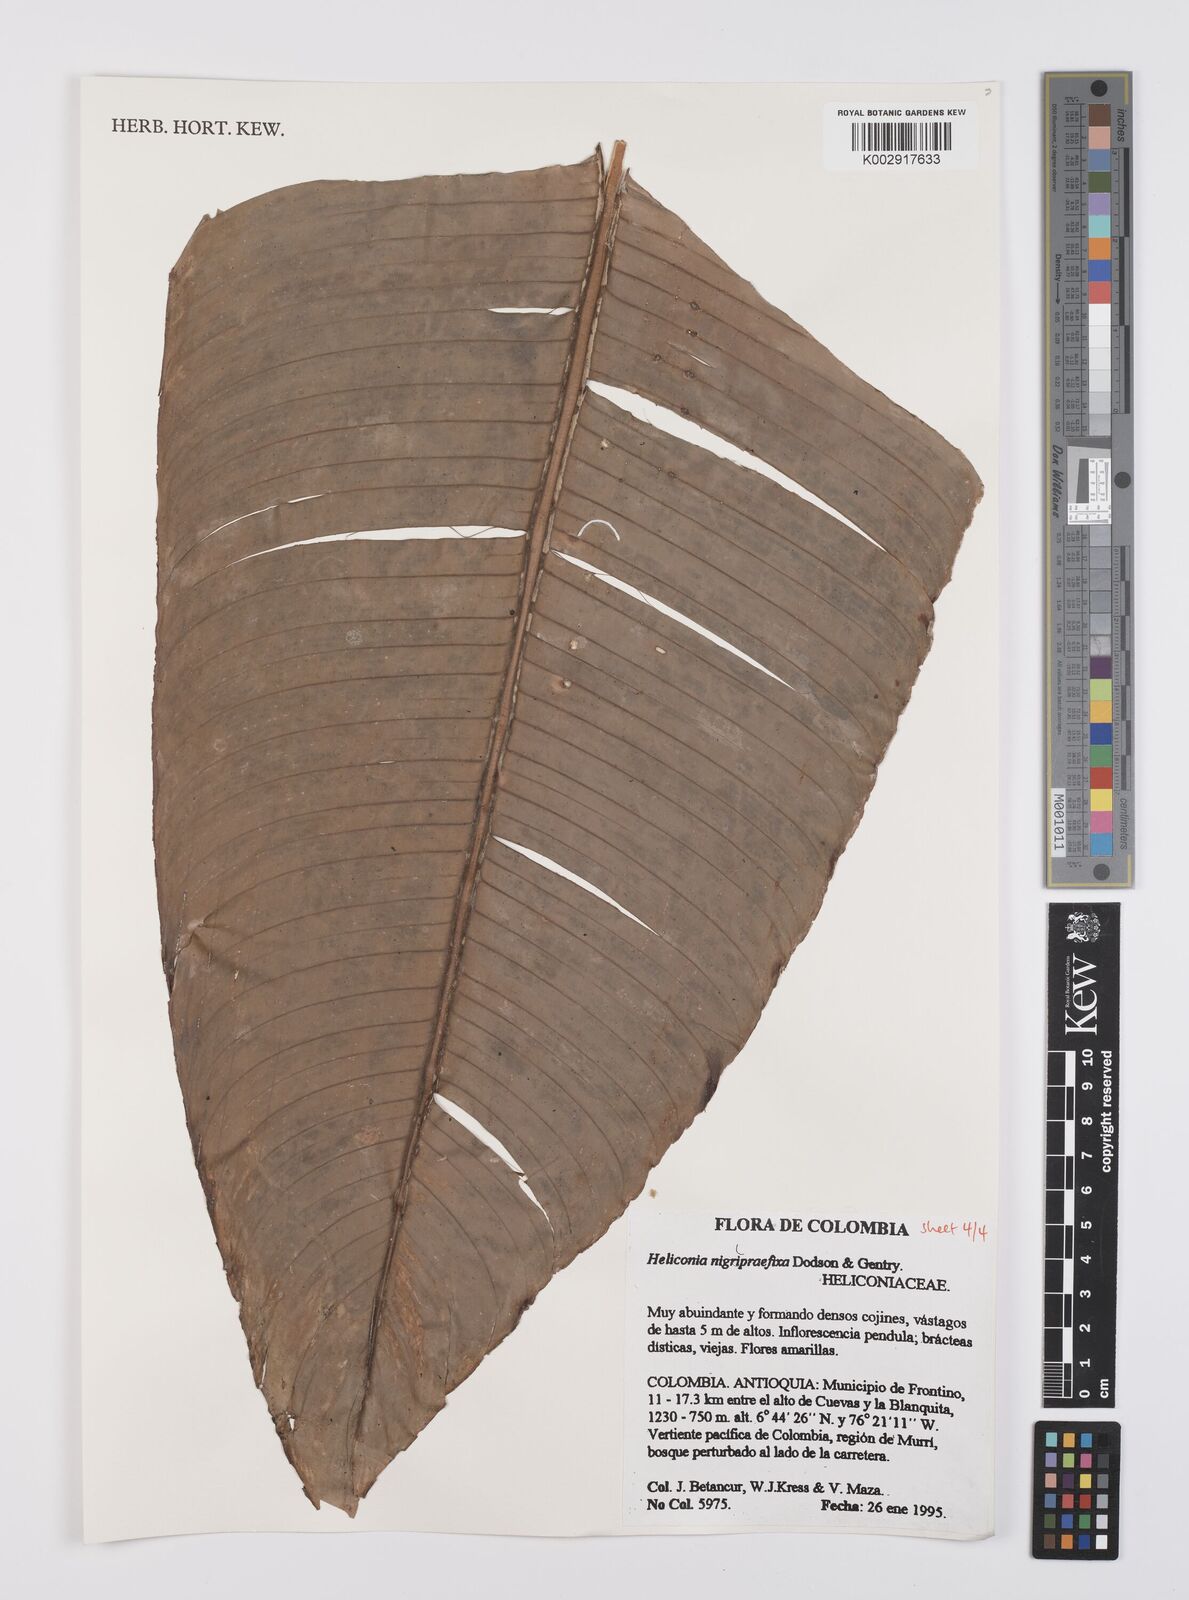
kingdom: Plantae
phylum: Tracheophyta
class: Liliopsida
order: Zingiberales
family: Heliconiaceae
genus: Heliconia
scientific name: Heliconia nigripraefixa
